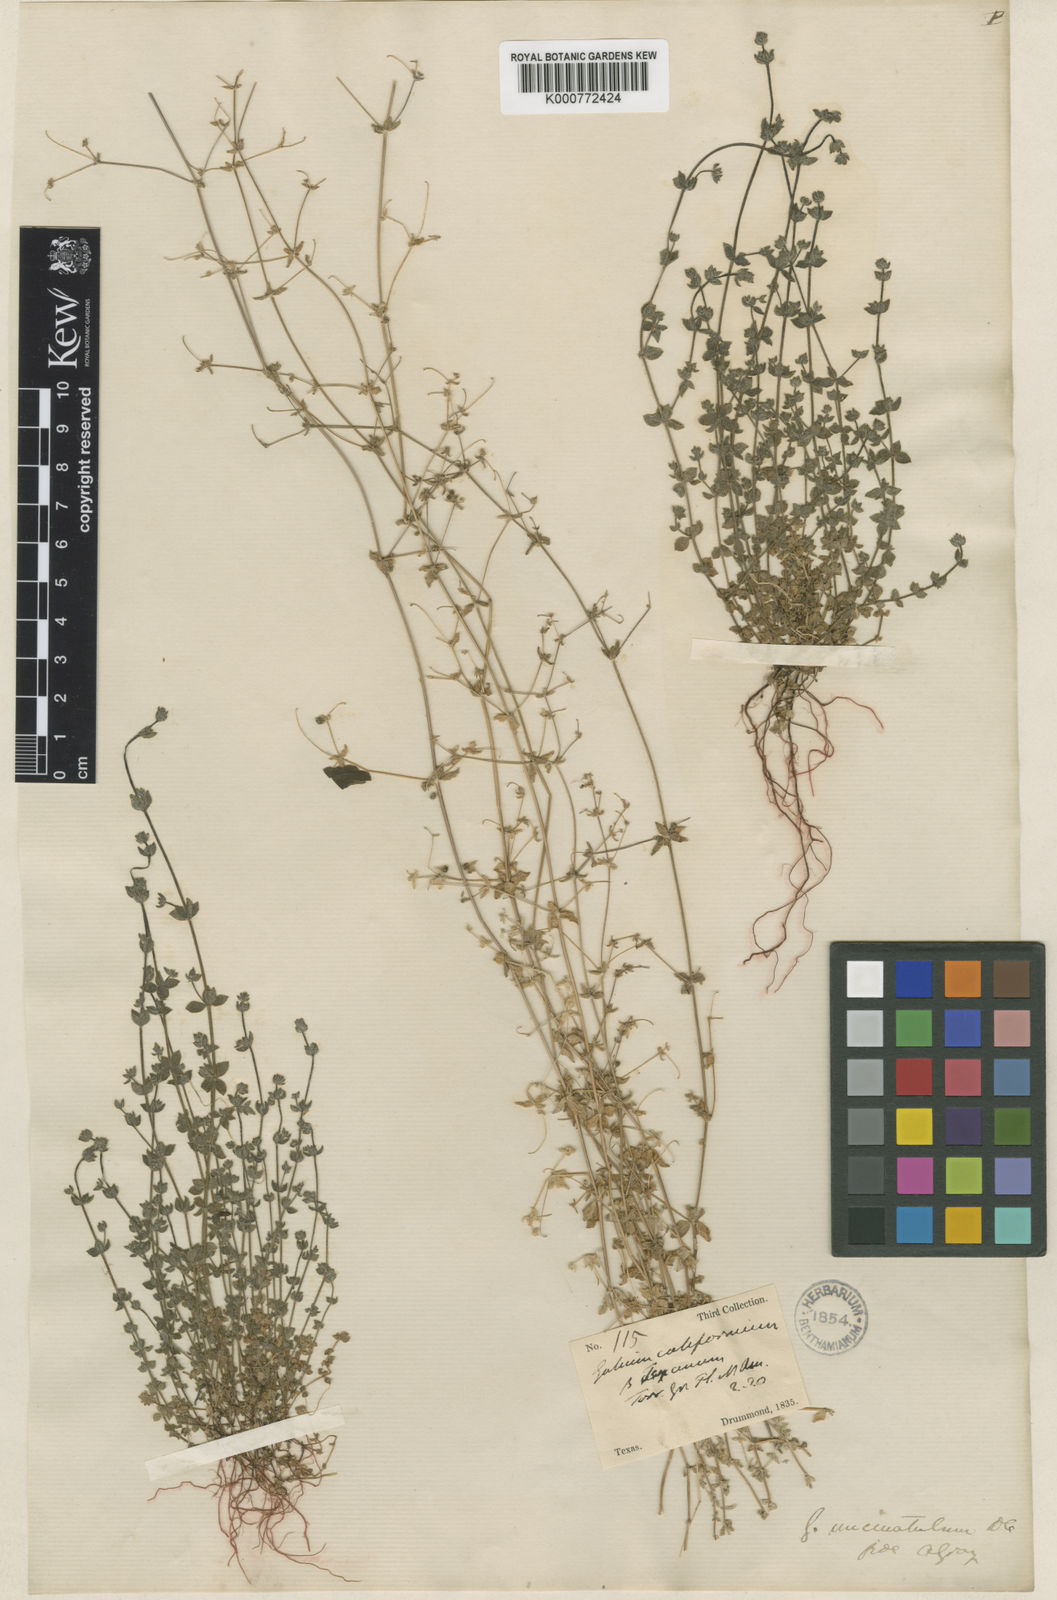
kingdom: Plantae
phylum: Tracheophyta
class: Magnoliopsida
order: Gentianales
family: Rubiaceae
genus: Galium
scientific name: Galium texense
